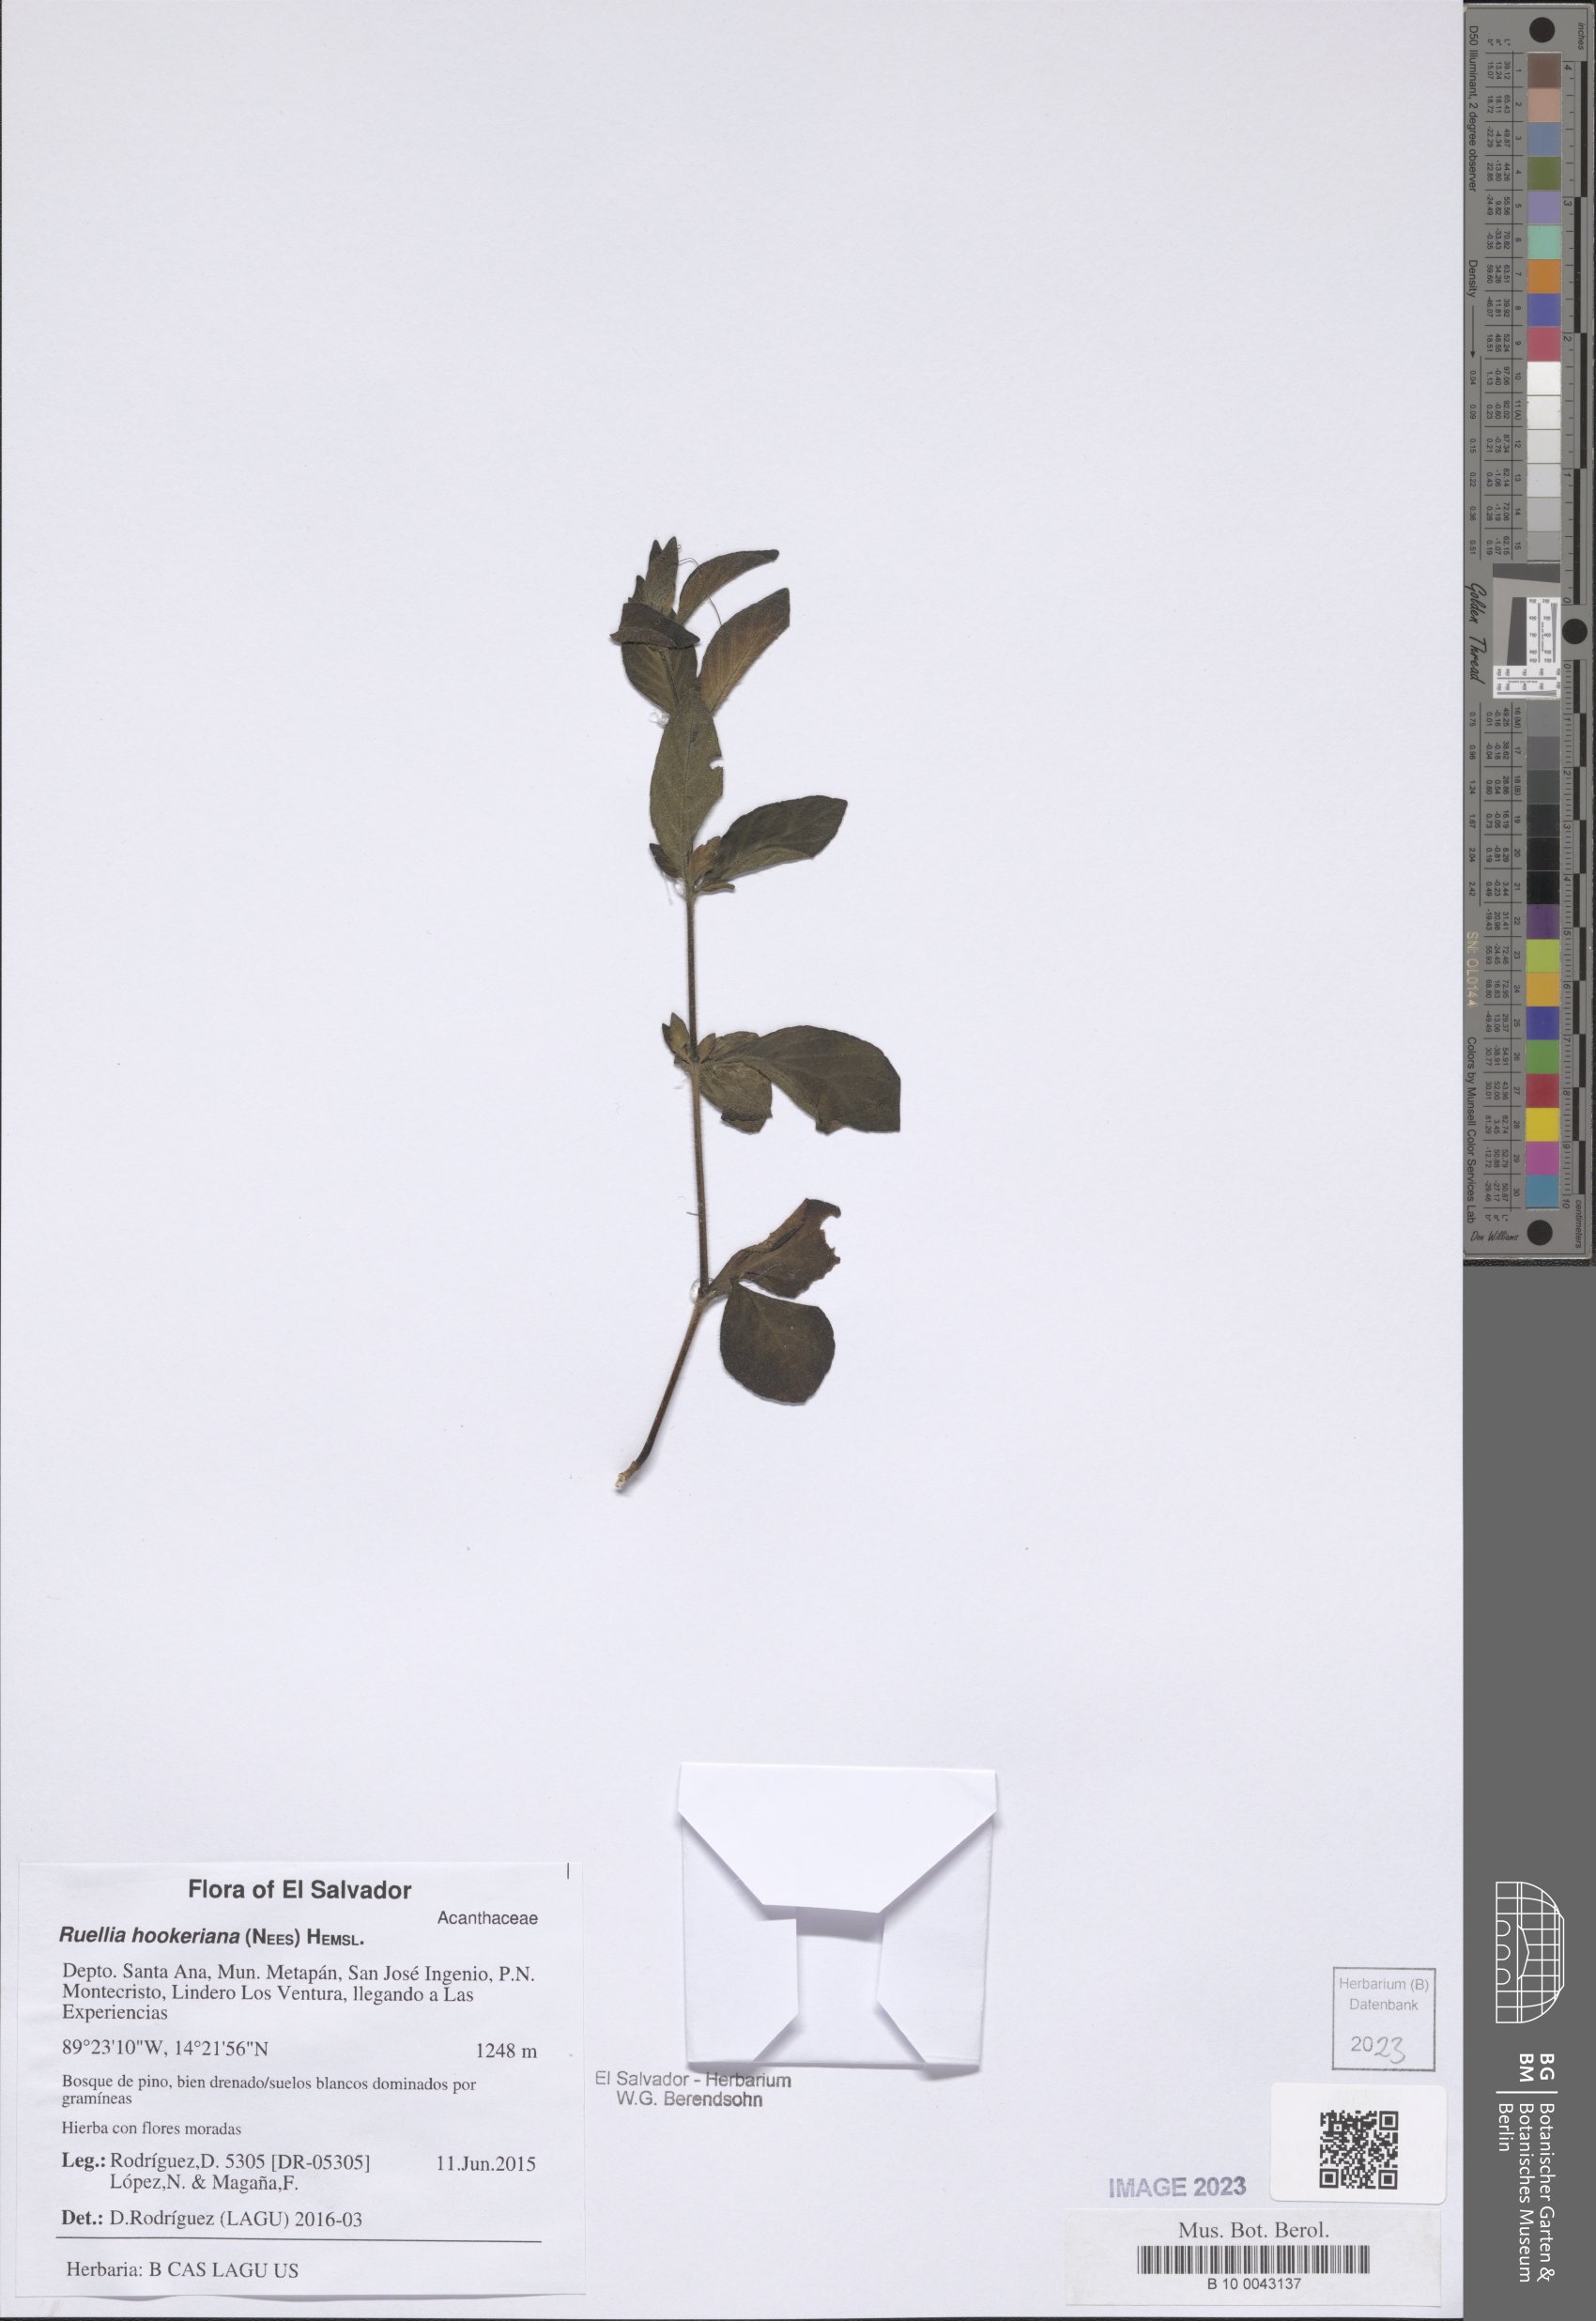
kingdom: Plantae
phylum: Tracheophyta
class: Magnoliopsida
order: Lamiales
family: Acanthaceae
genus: Ruellia
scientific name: Ruellia hookeriana
